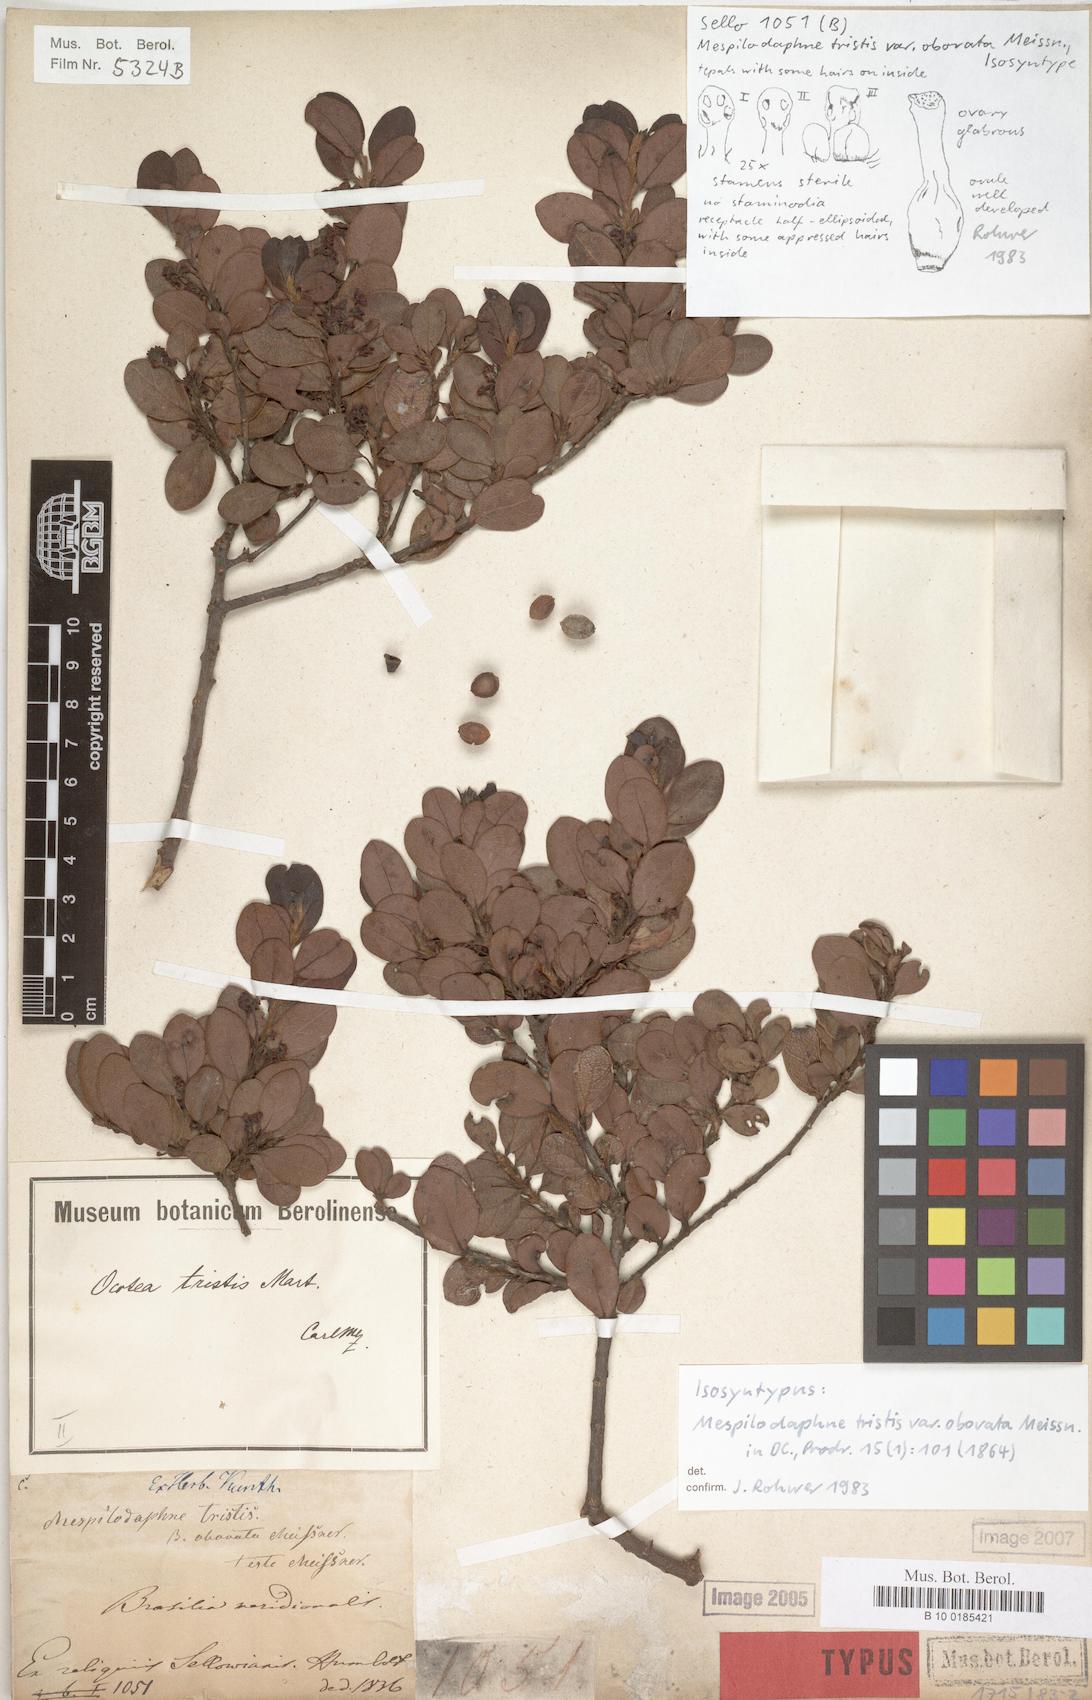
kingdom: Plantae
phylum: Tracheophyta
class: Magnoliopsida
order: Laurales
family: Lauraceae
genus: Mespilodaphne
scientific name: Mespilodaphne tristis
